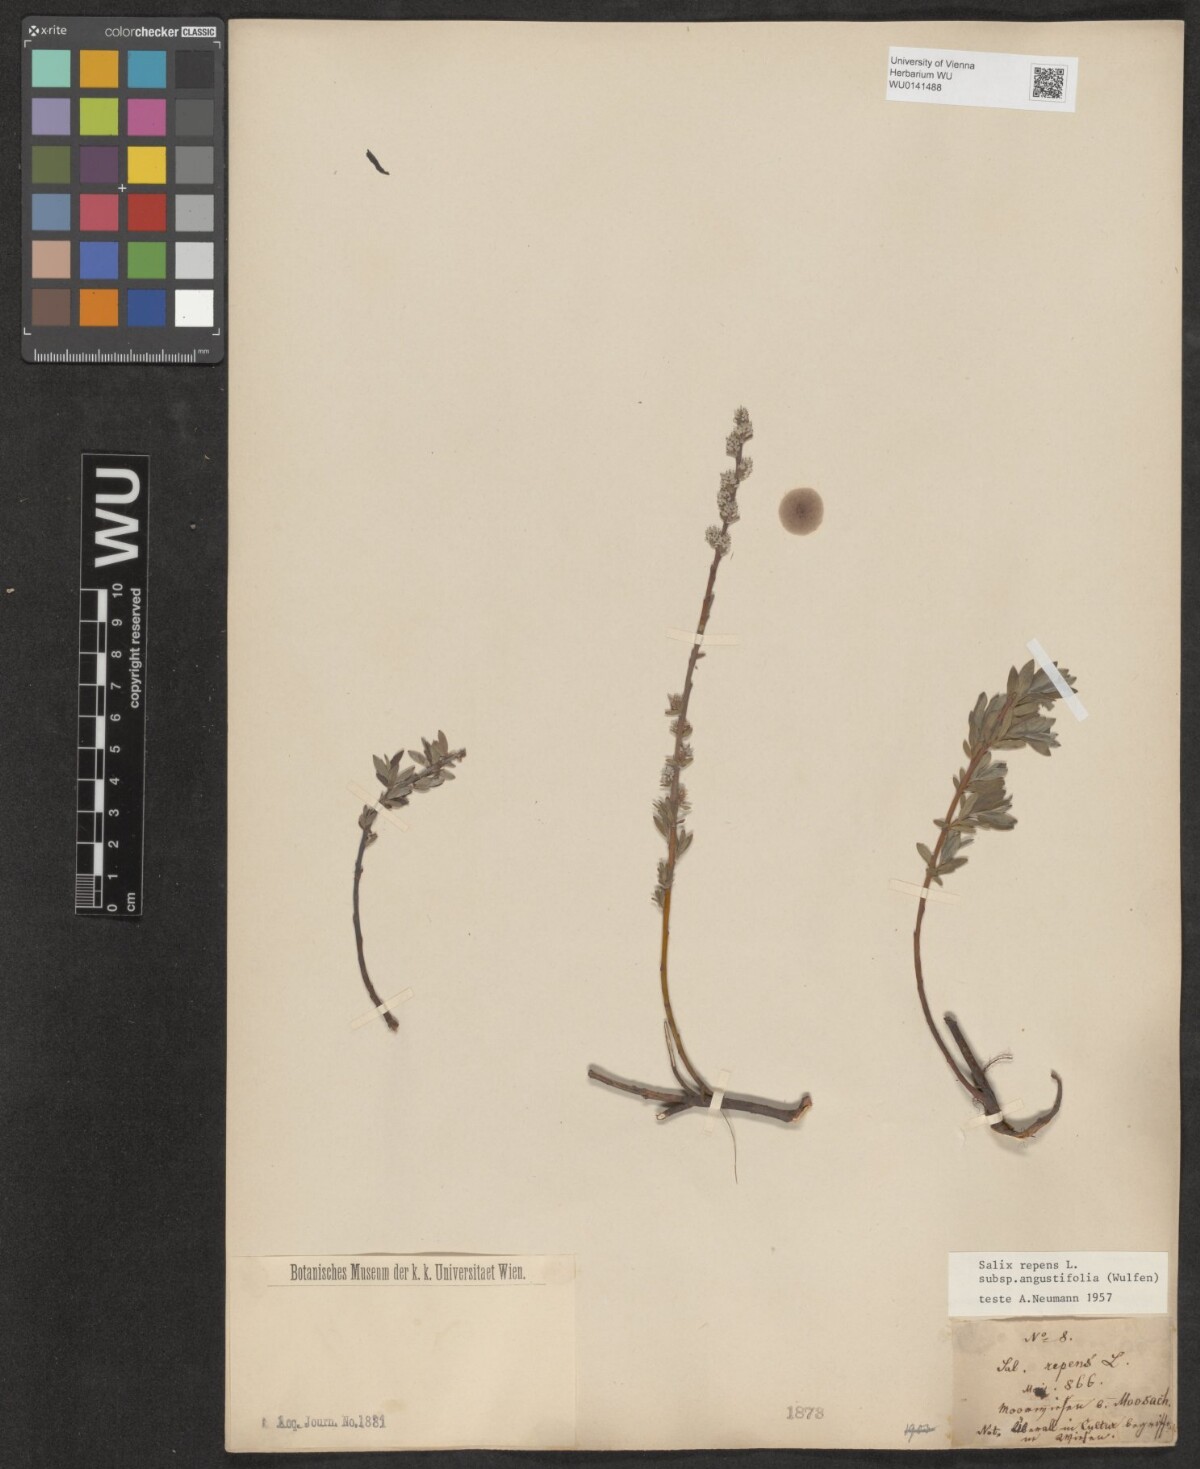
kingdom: Plantae
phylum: Tracheophyta
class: Magnoliopsida
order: Malpighiales
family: Salicaceae
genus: Salix
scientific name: Salix rosmarinifolia
